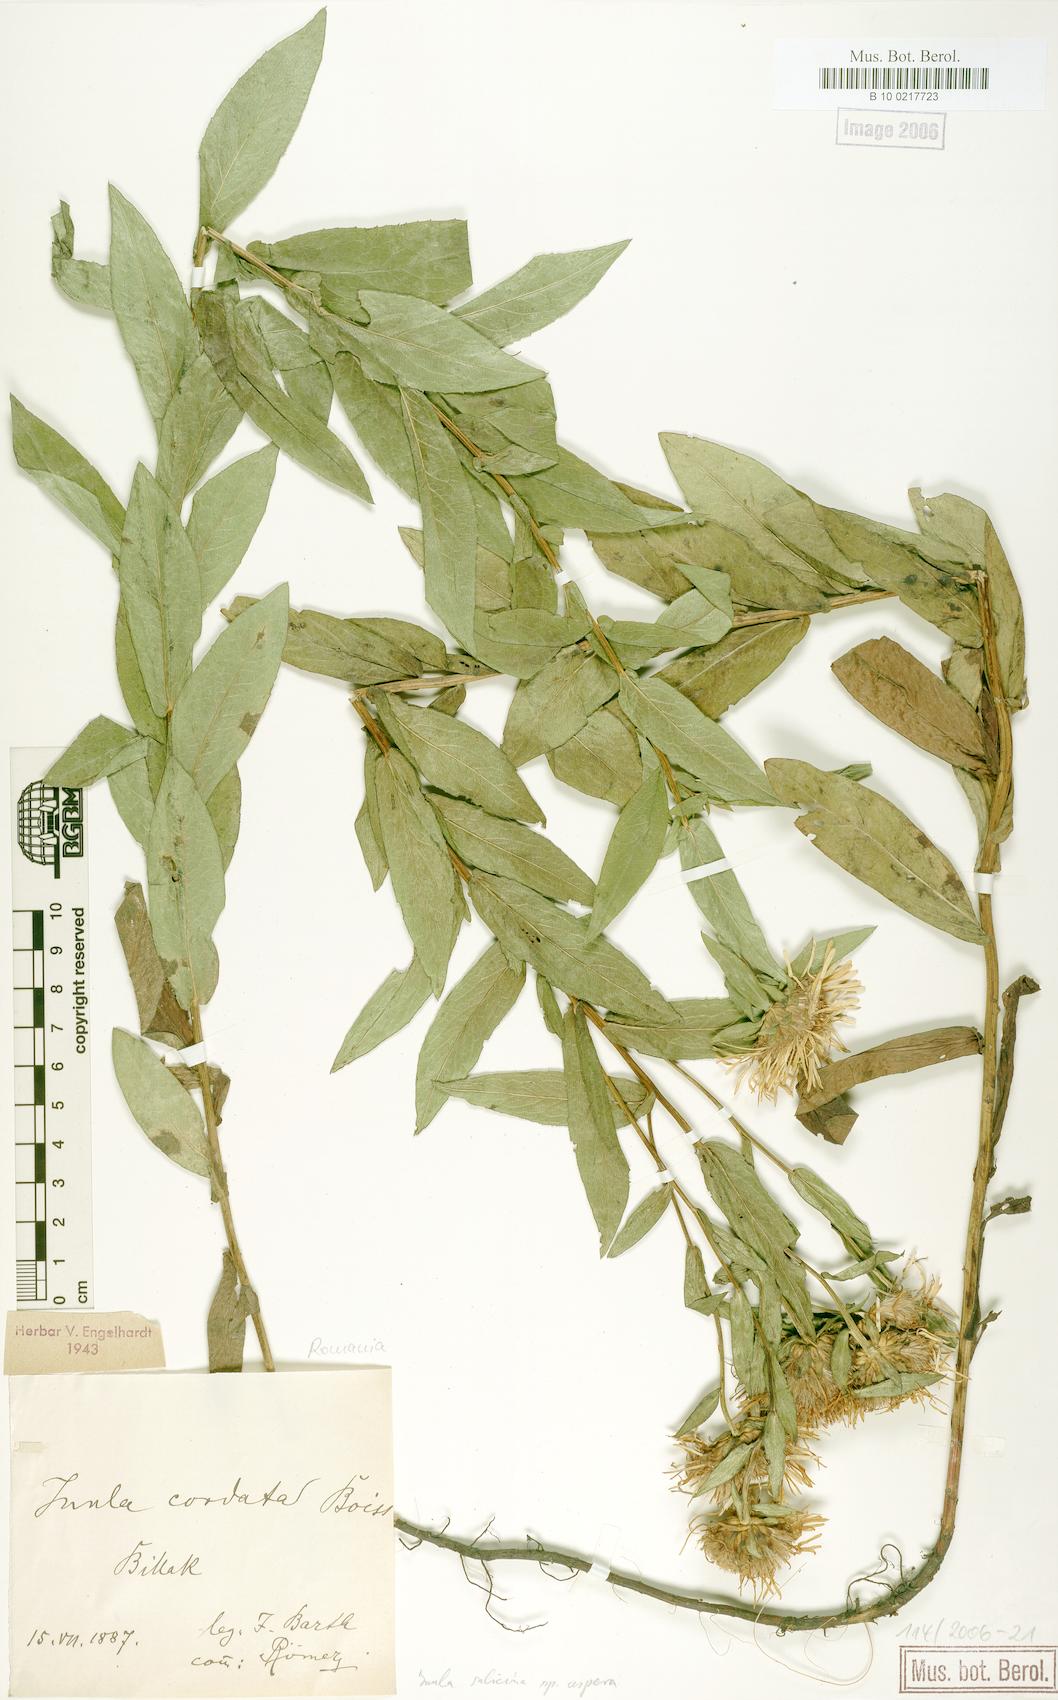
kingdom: Plantae
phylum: Tracheophyta
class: Magnoliopsida
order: Asterales
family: Asteraceae
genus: Pentanema
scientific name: Pentanema salicinum
